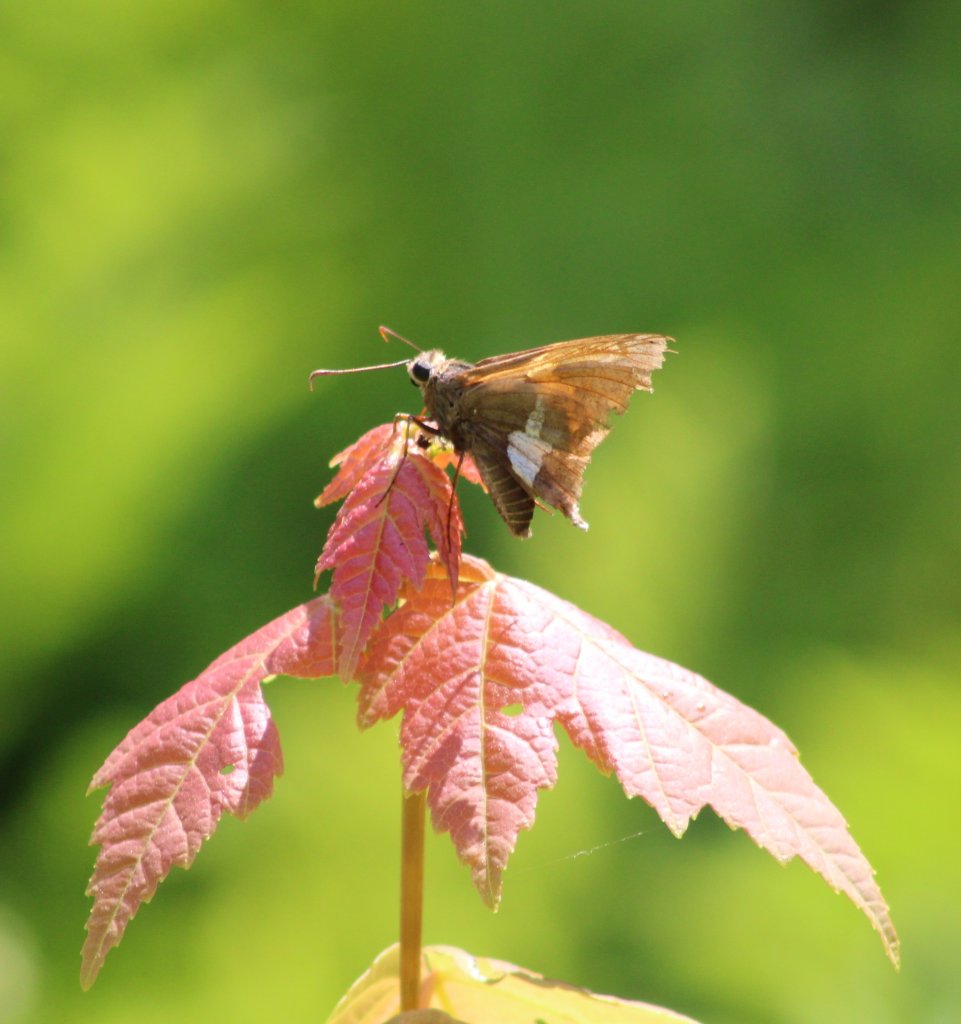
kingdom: Animalia
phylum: Arthropoda
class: Insecta
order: Lepidoptera
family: Hesperiidae
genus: Epargyreus
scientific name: Epargyreus clarus
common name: Silver-spotted Skipper
